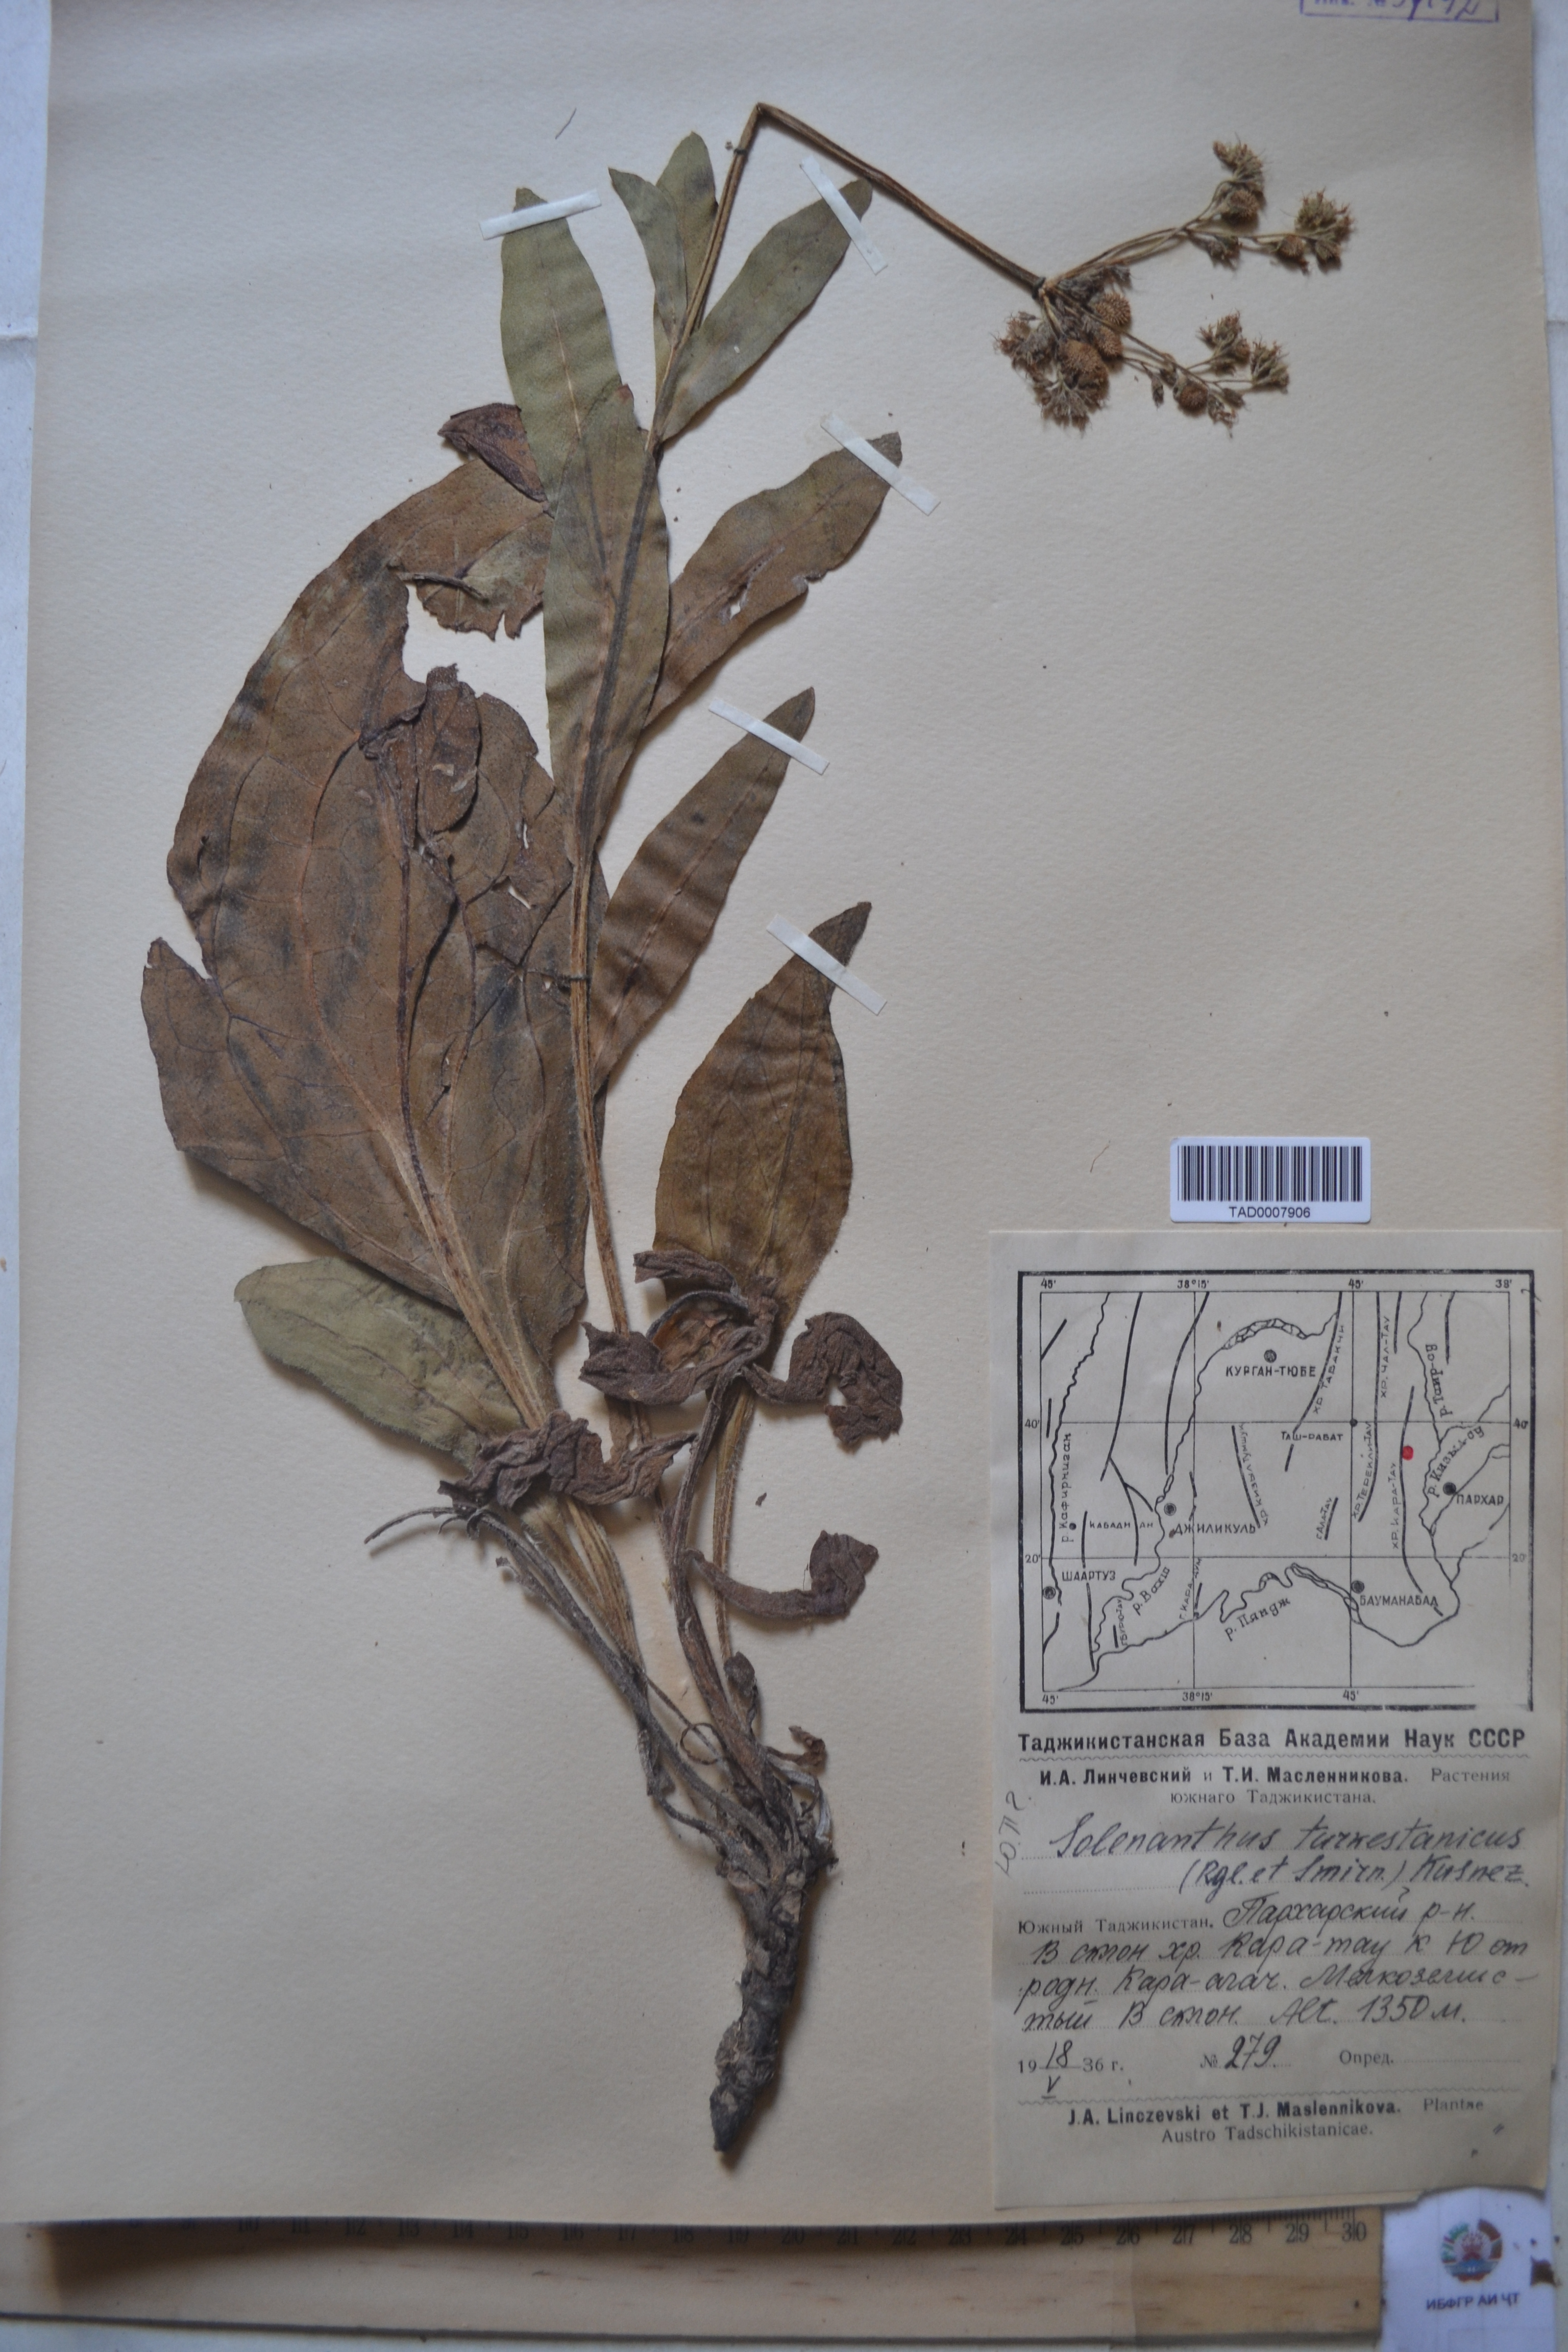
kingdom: Plantae
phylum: Tracheophyta
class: Magnoliopsida
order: Boraginales
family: Boraginaceae
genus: Solenanthus
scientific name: Solenanthus turkestanicus
